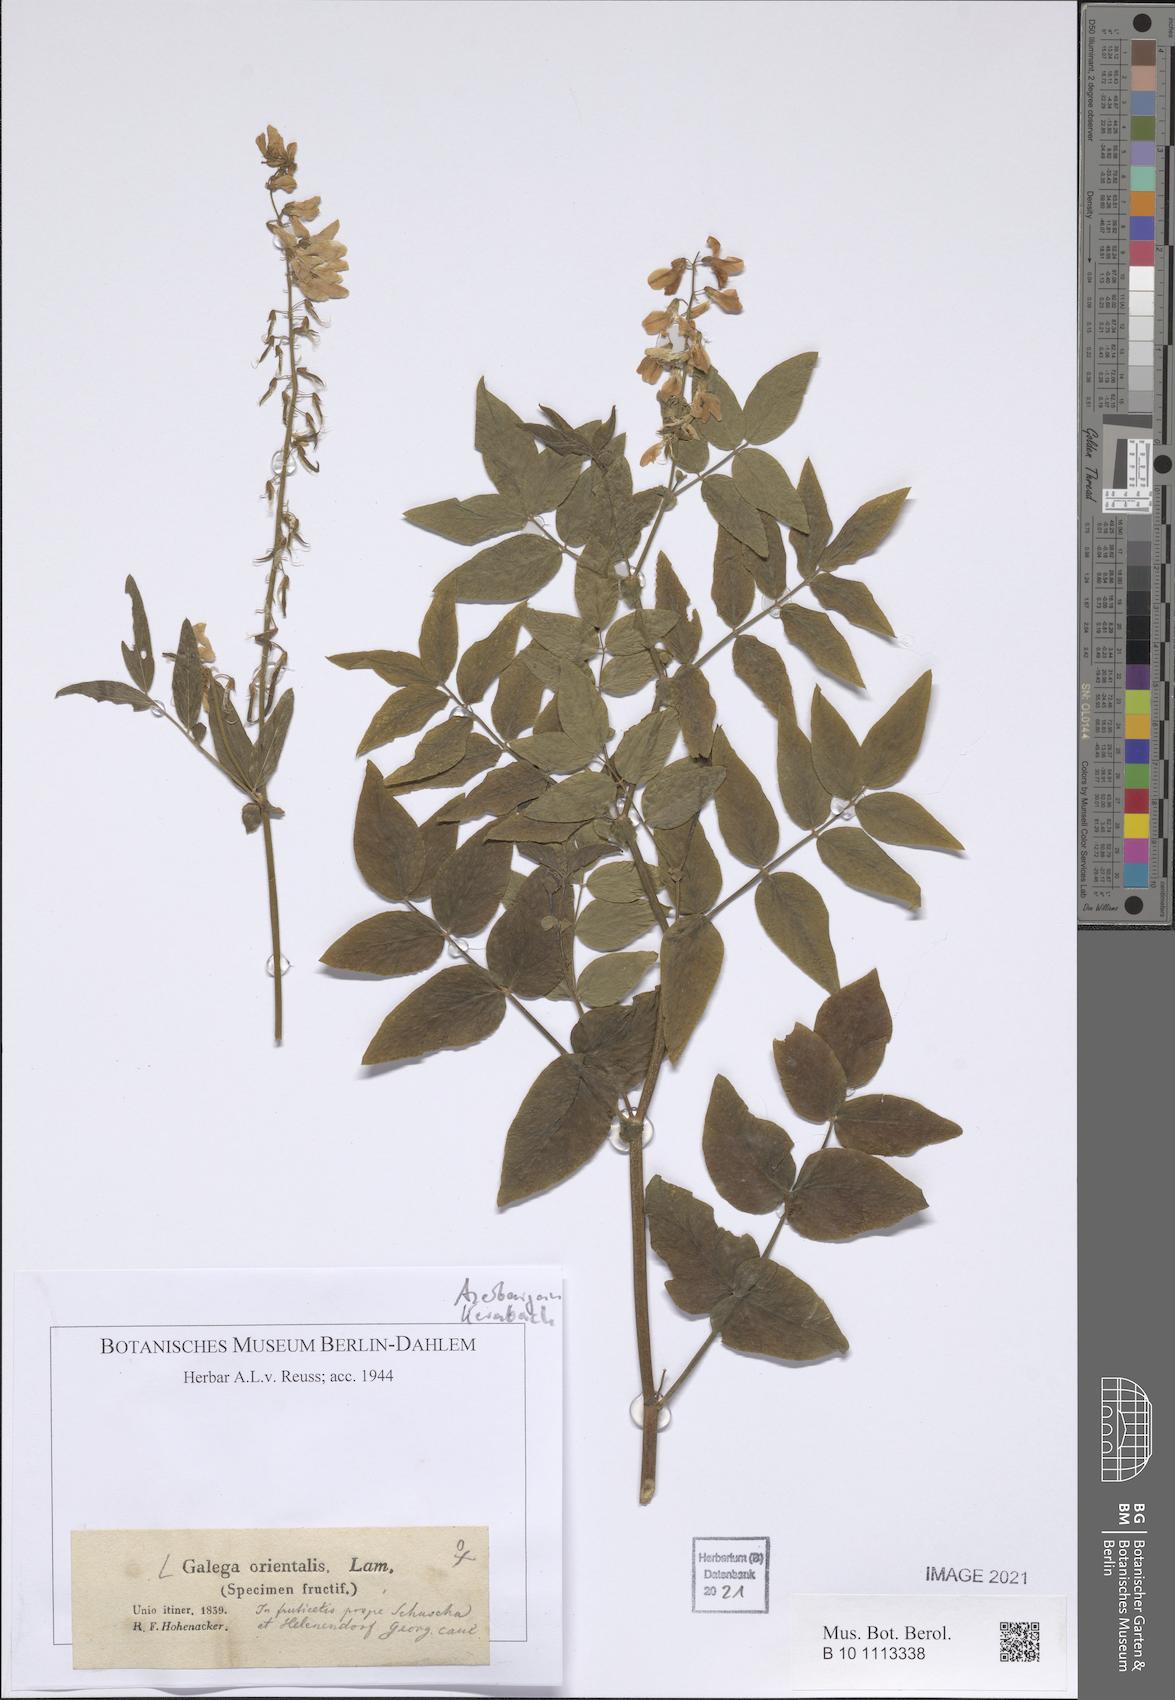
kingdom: Plantae
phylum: Tracheophyta
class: Magnoliopsida
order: Fabales
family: Fabaceae
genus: Galega
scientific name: Galega orientalis
